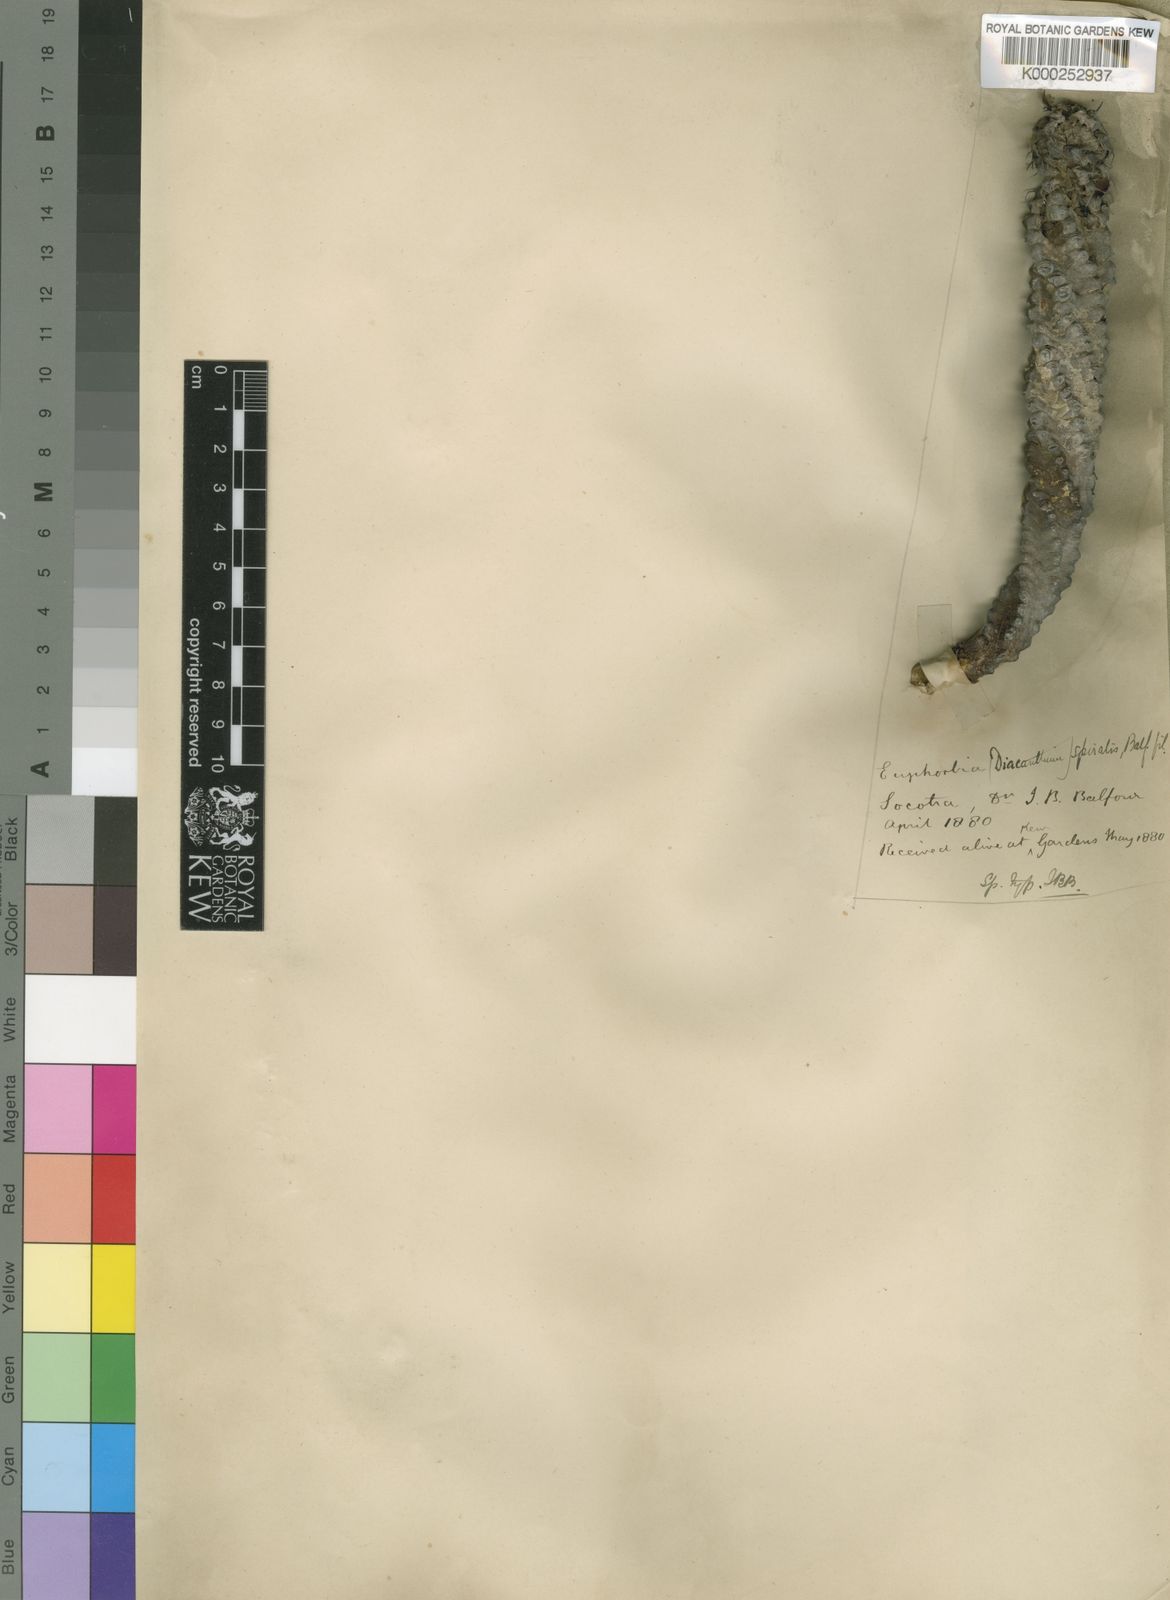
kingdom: Plantae
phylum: Tracheophyta
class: Magnoliopsida
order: Malpighiales
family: Euphorbiaceae
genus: Euphorbia
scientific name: Euphorbia spiralis
